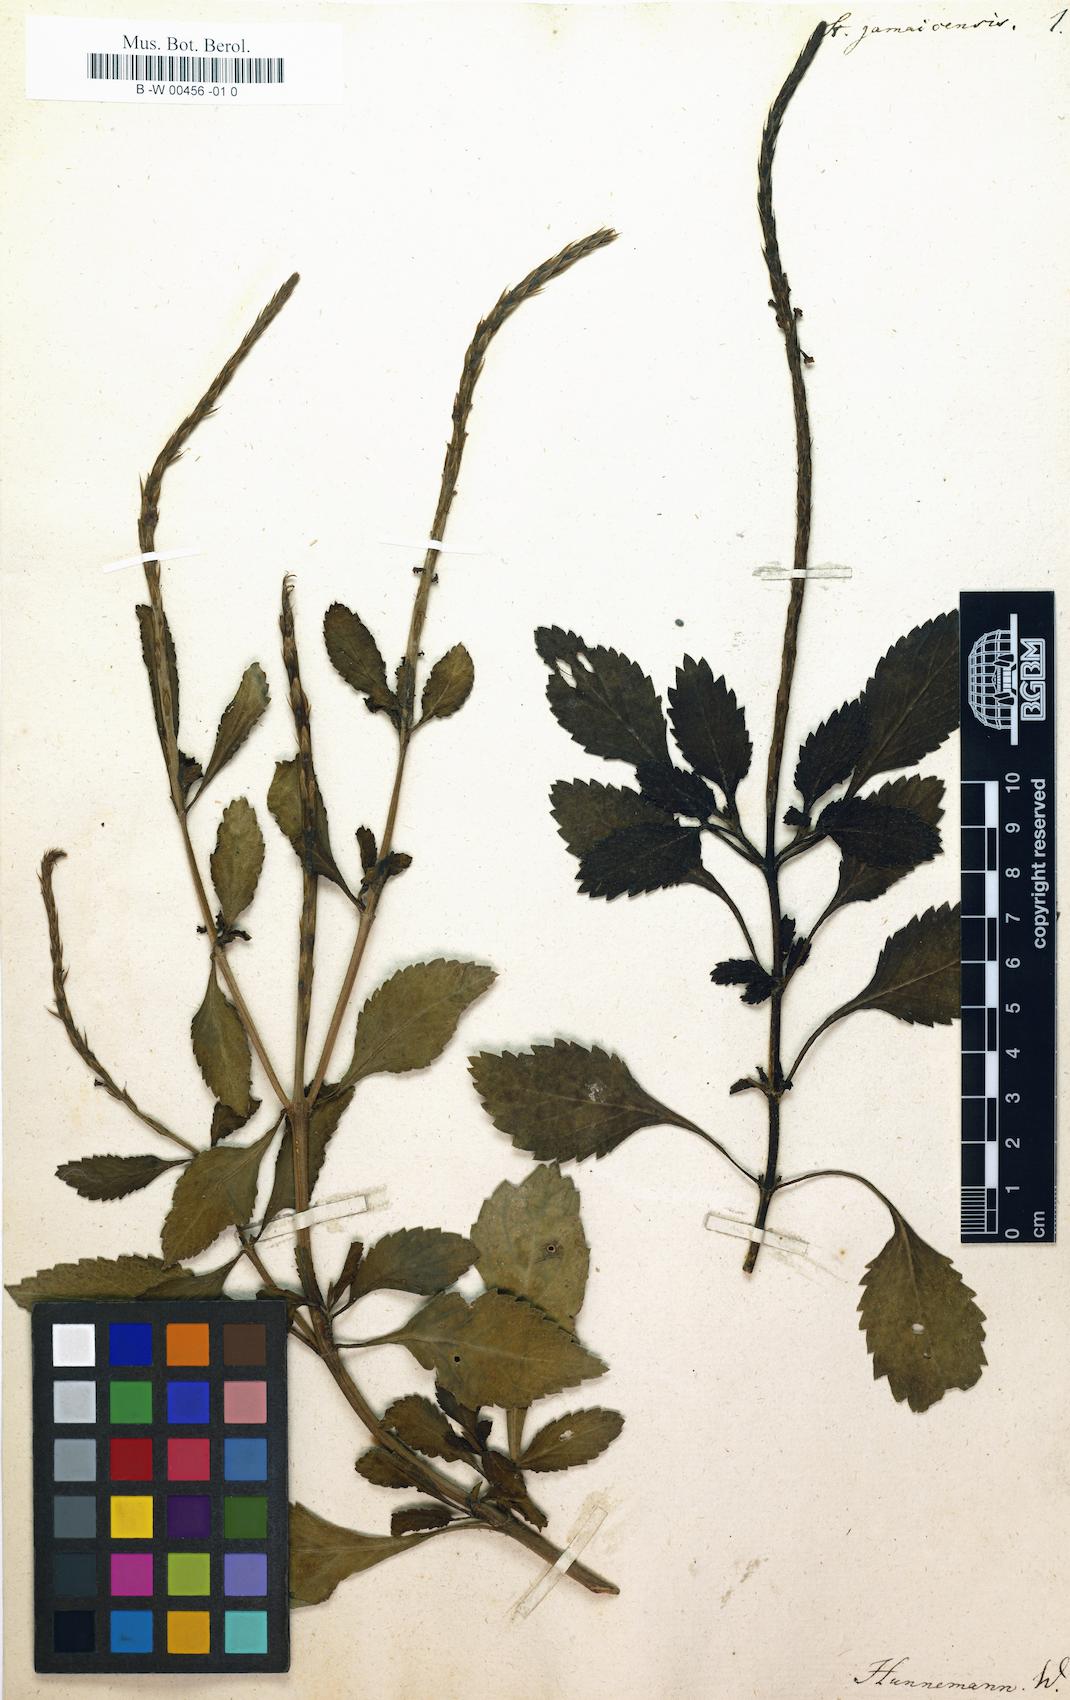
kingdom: Plantae
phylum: Tracheophyta
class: Magnoliopsida
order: Lamiales
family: Verbenaceae
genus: Stachytarpheta
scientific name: Stachytarpheta jamaicensis
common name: Light-blue snakeweed
